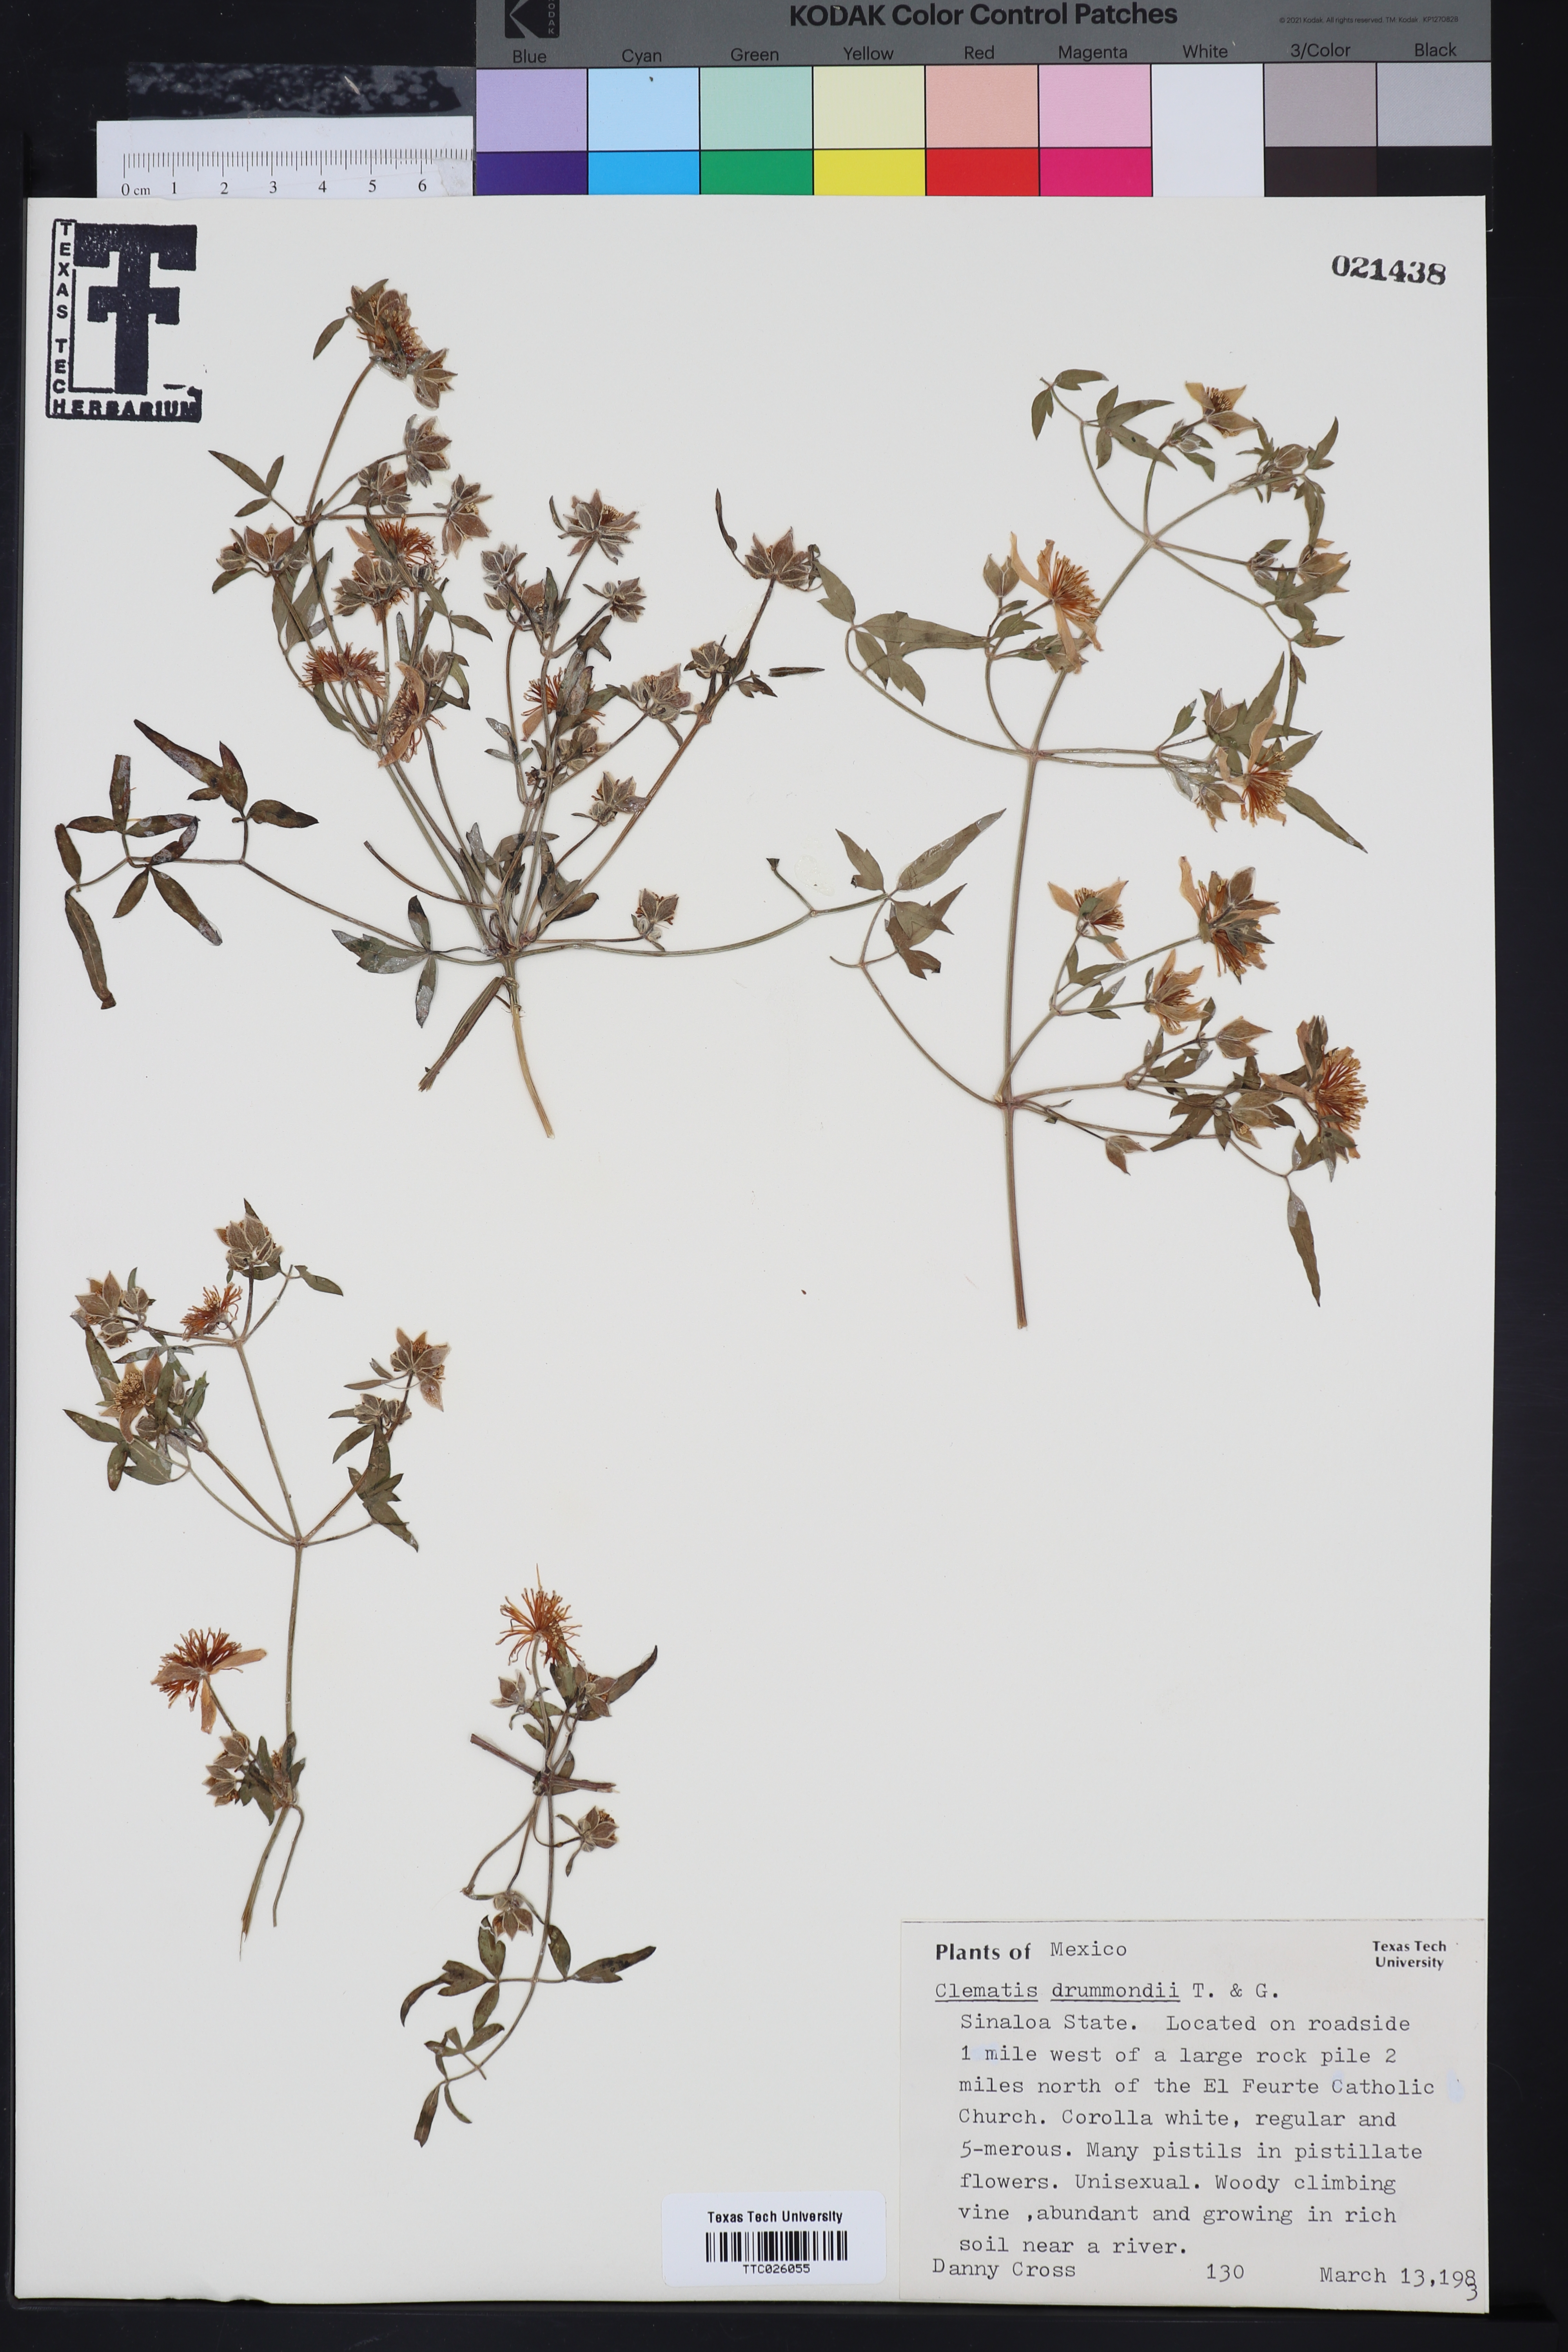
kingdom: Plantae
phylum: Tracheophyta
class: Magnoliopsida
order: Ranunculales
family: Ranunculaceae
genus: Clematis
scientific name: Clematis drummondii
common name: Texas virgin's bower
